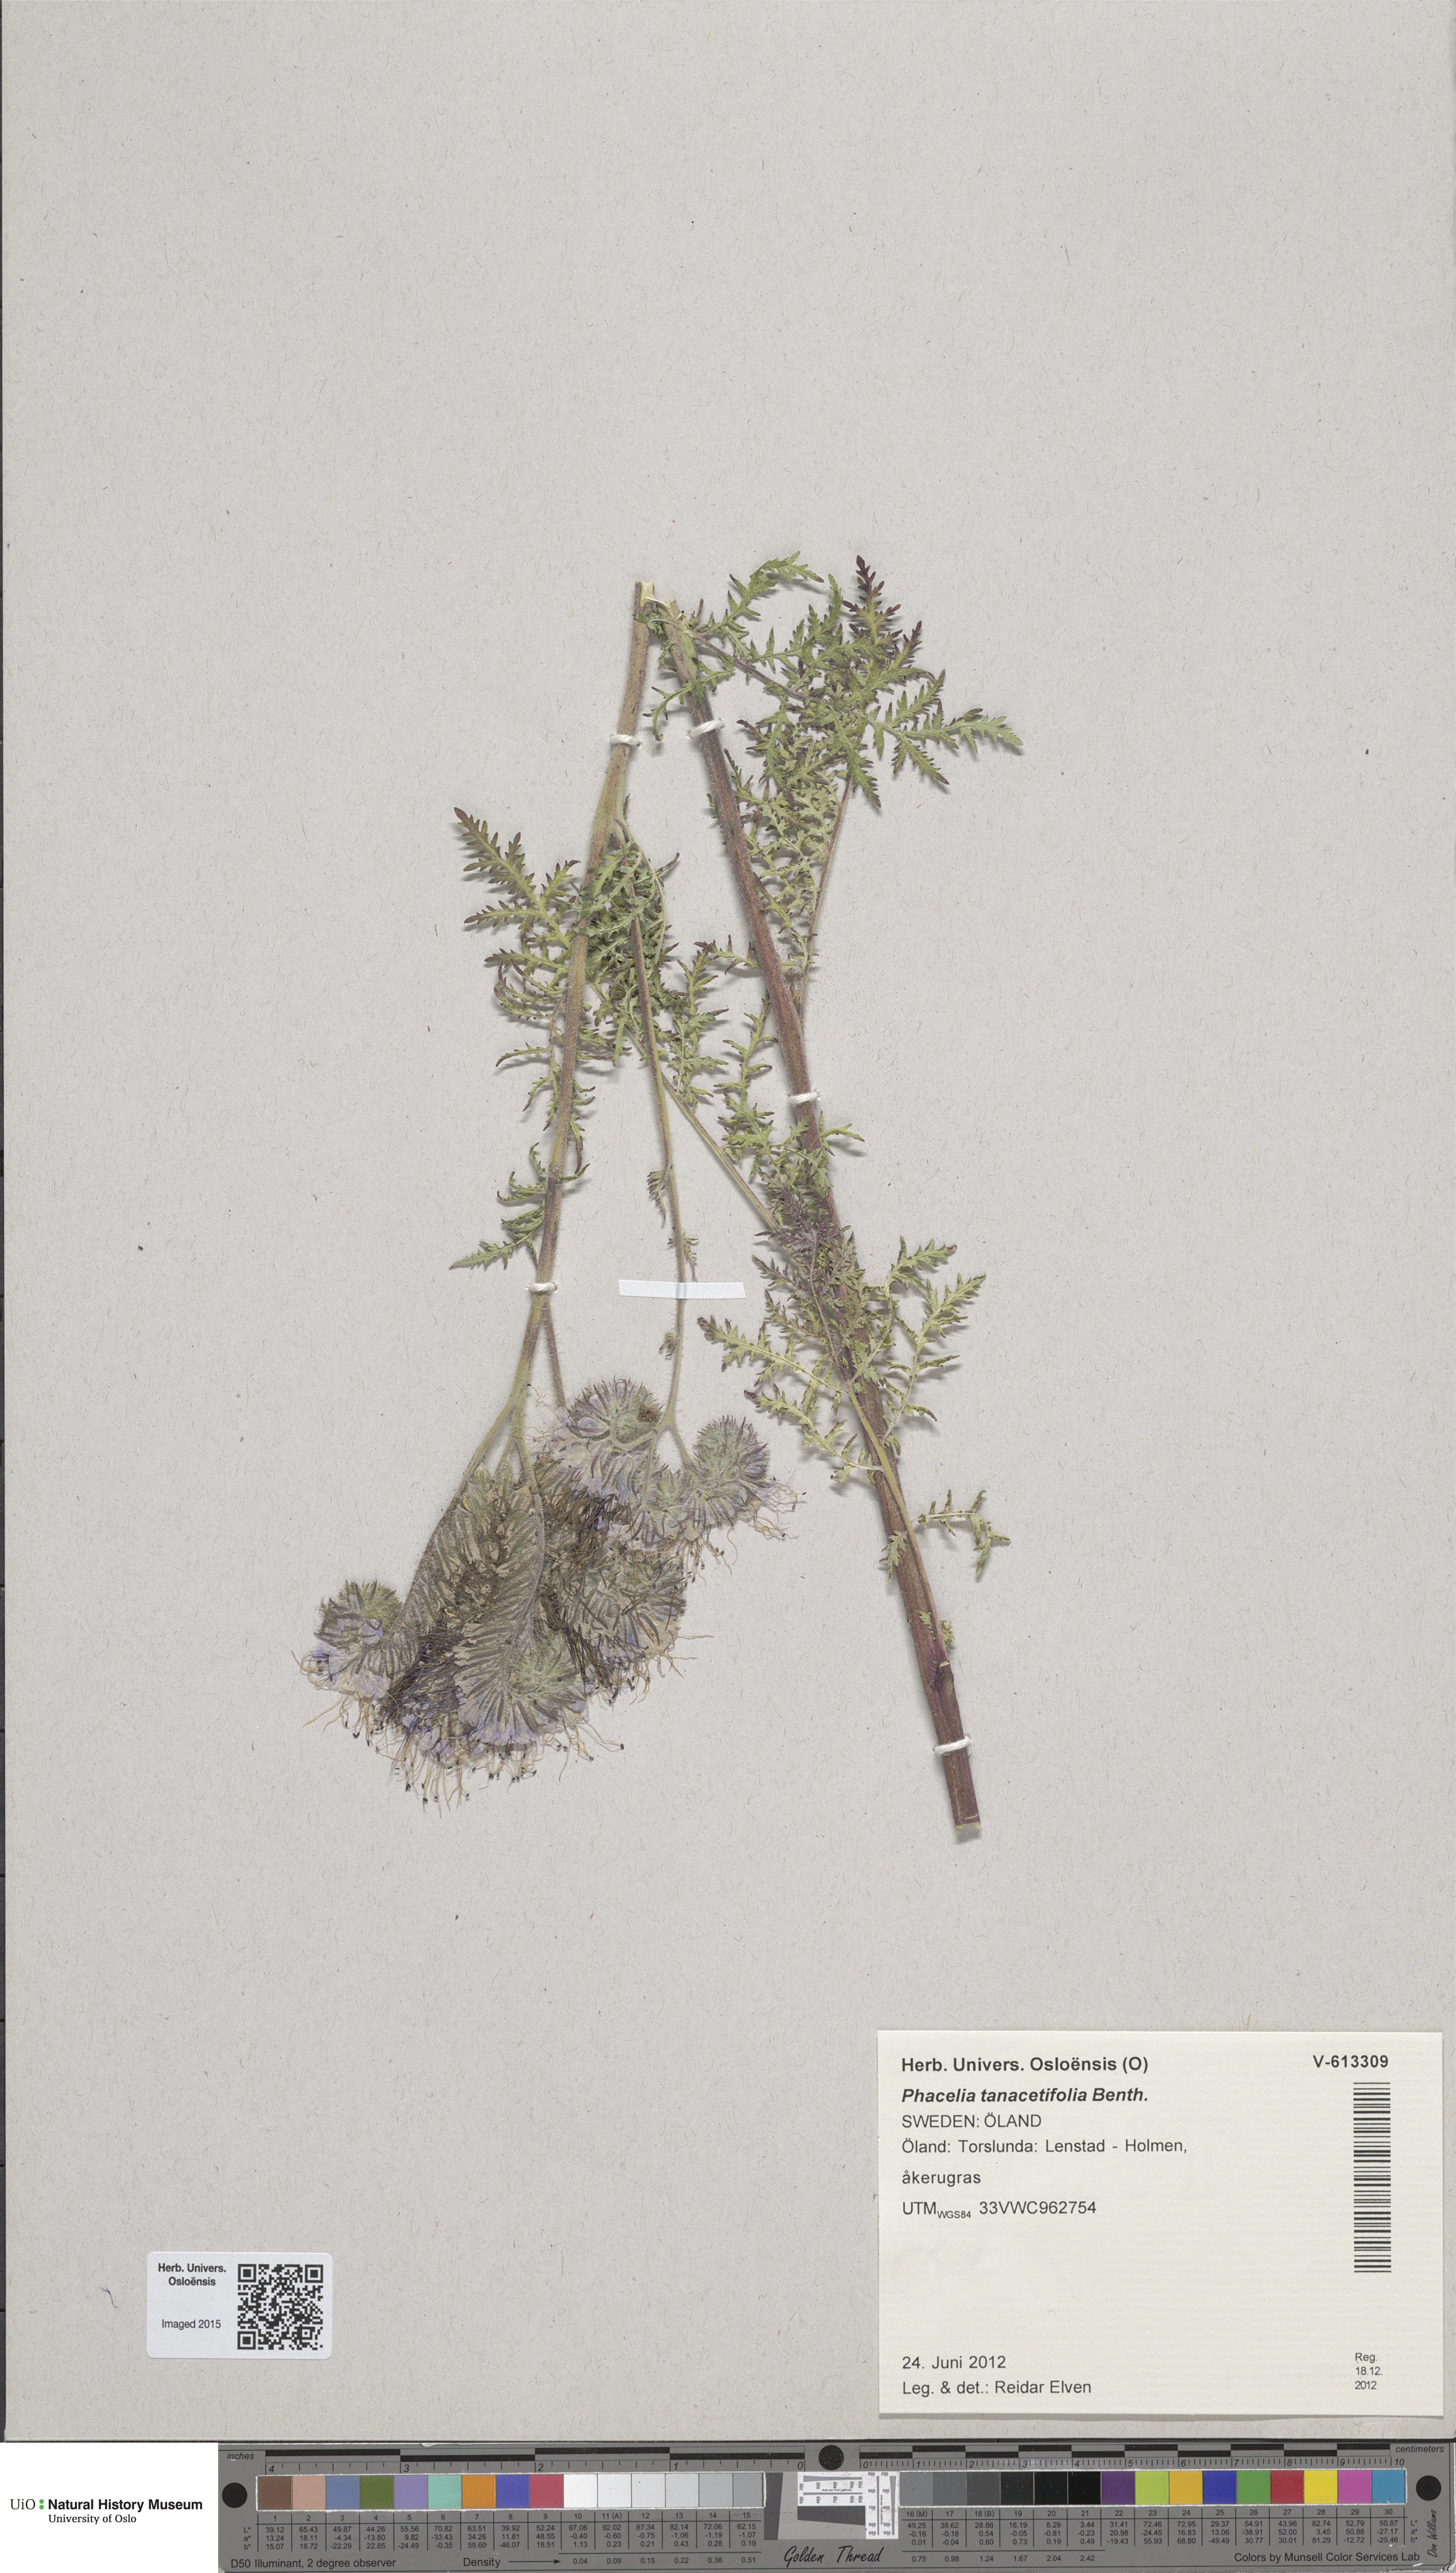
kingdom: Plantae
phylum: Tracheophyta
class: Magnoliopsida
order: Boraginales
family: Hydrophyllaceae
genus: Phacelia
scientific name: Phacelia tanacetifolia
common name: Phacelia
